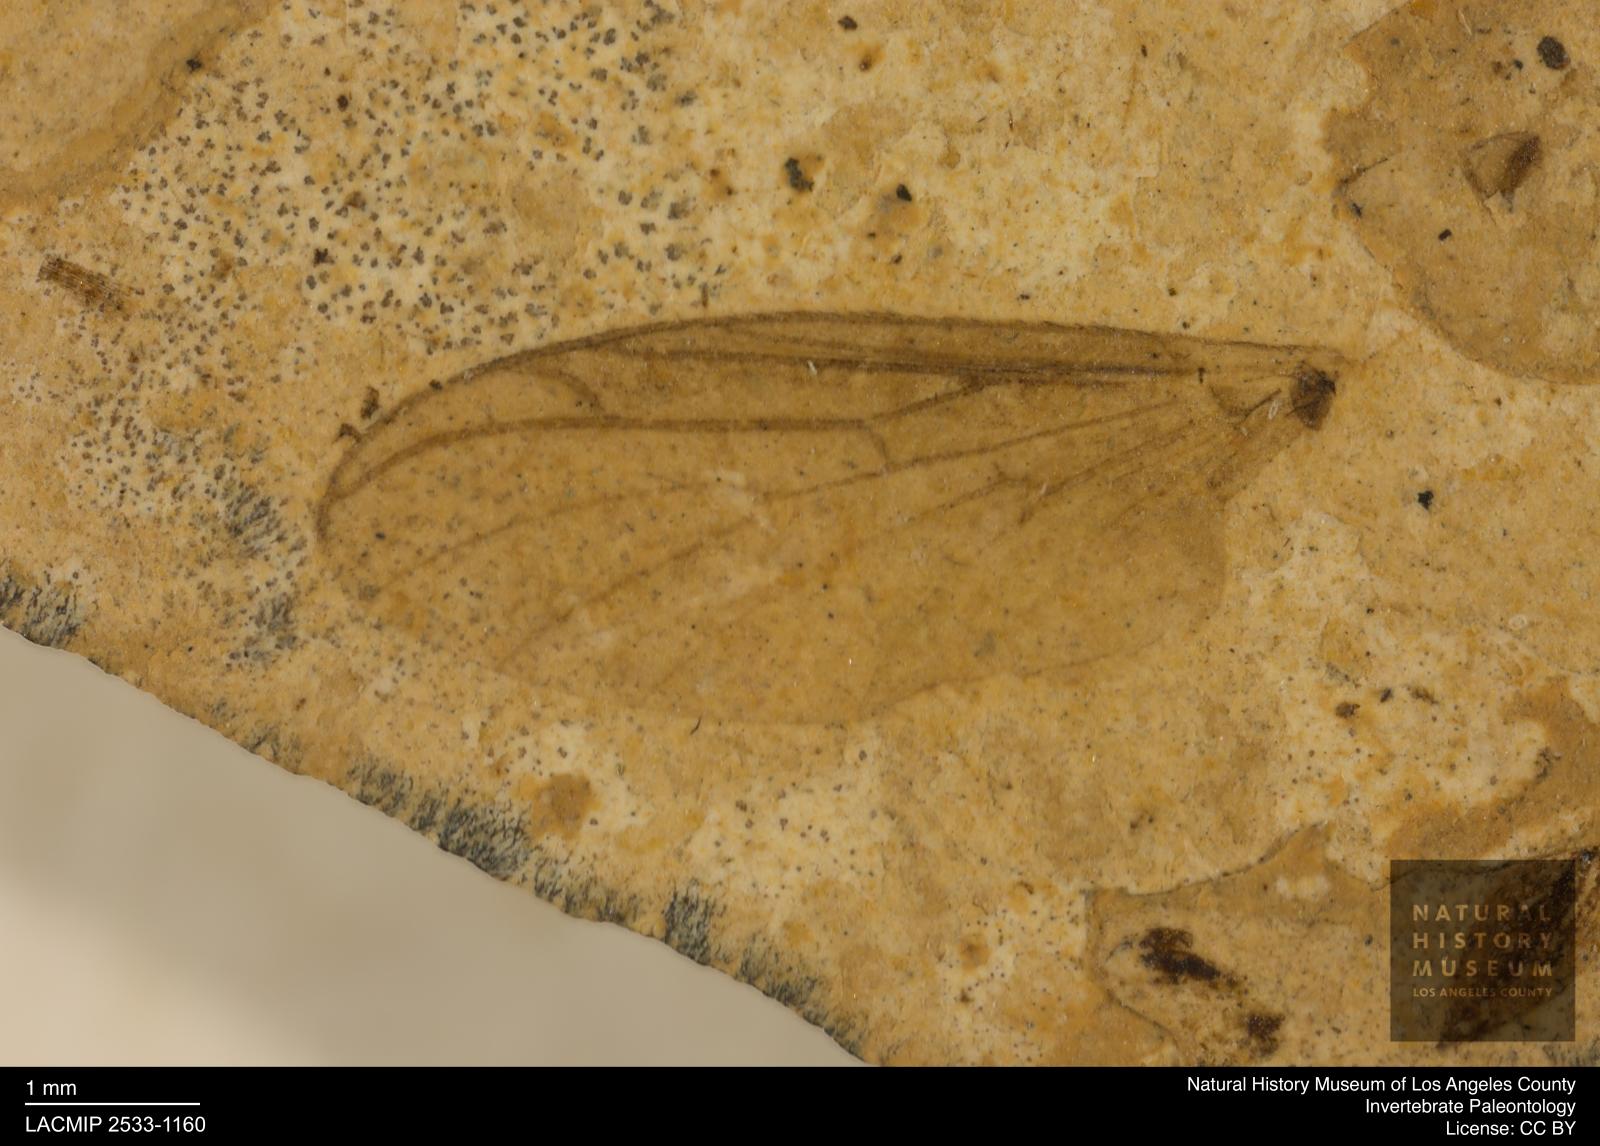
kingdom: Animalia
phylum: Arthropoda
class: Insecta
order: Diptera
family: Bibionidae
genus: Plecia
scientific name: Plecia pinguis
